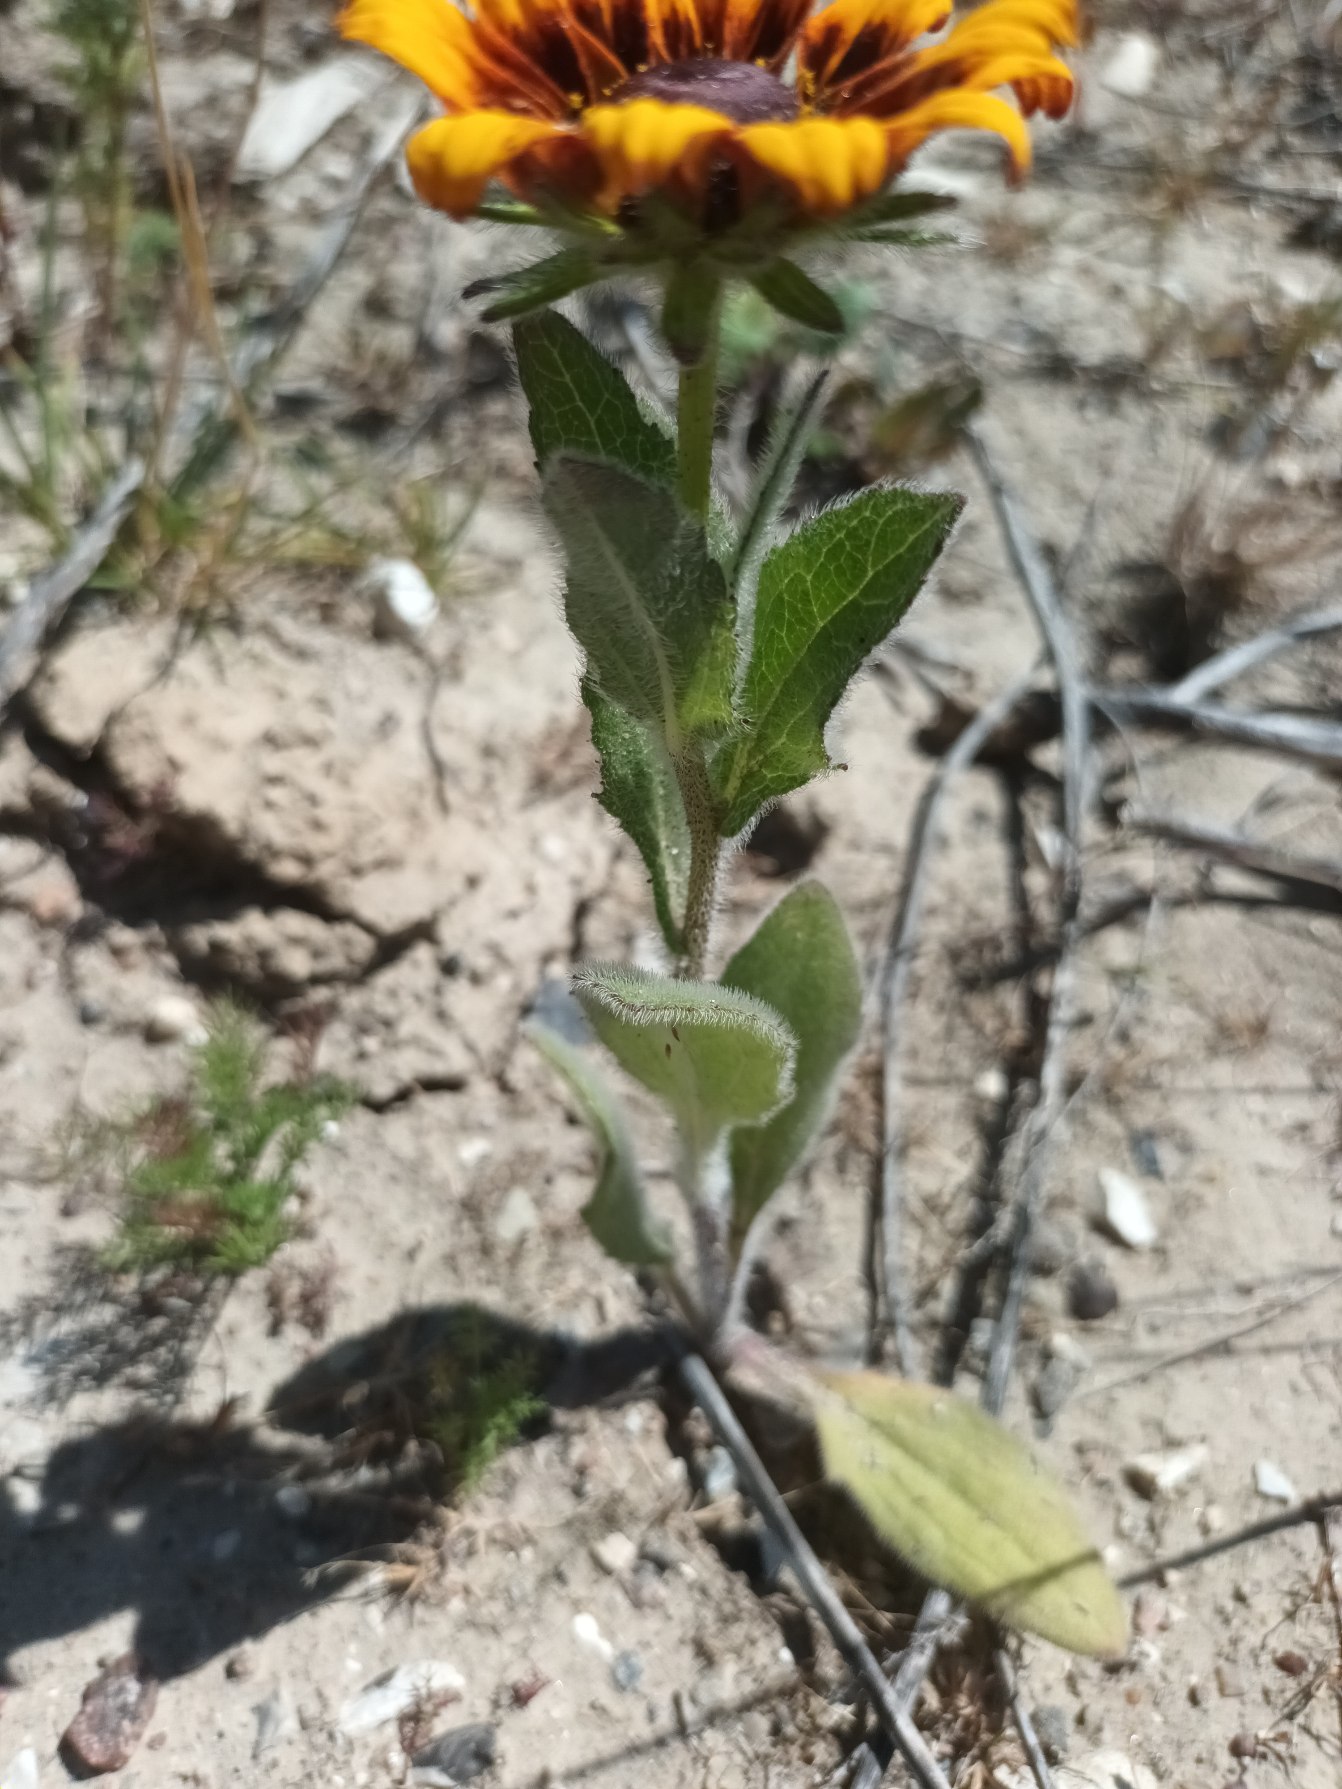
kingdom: Plantae
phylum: Tracheophyta
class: Magnoliopsida
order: Asterales
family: Asteraceae
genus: Rudbeckia
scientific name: Rudbeckia hirta
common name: Håret solhat
